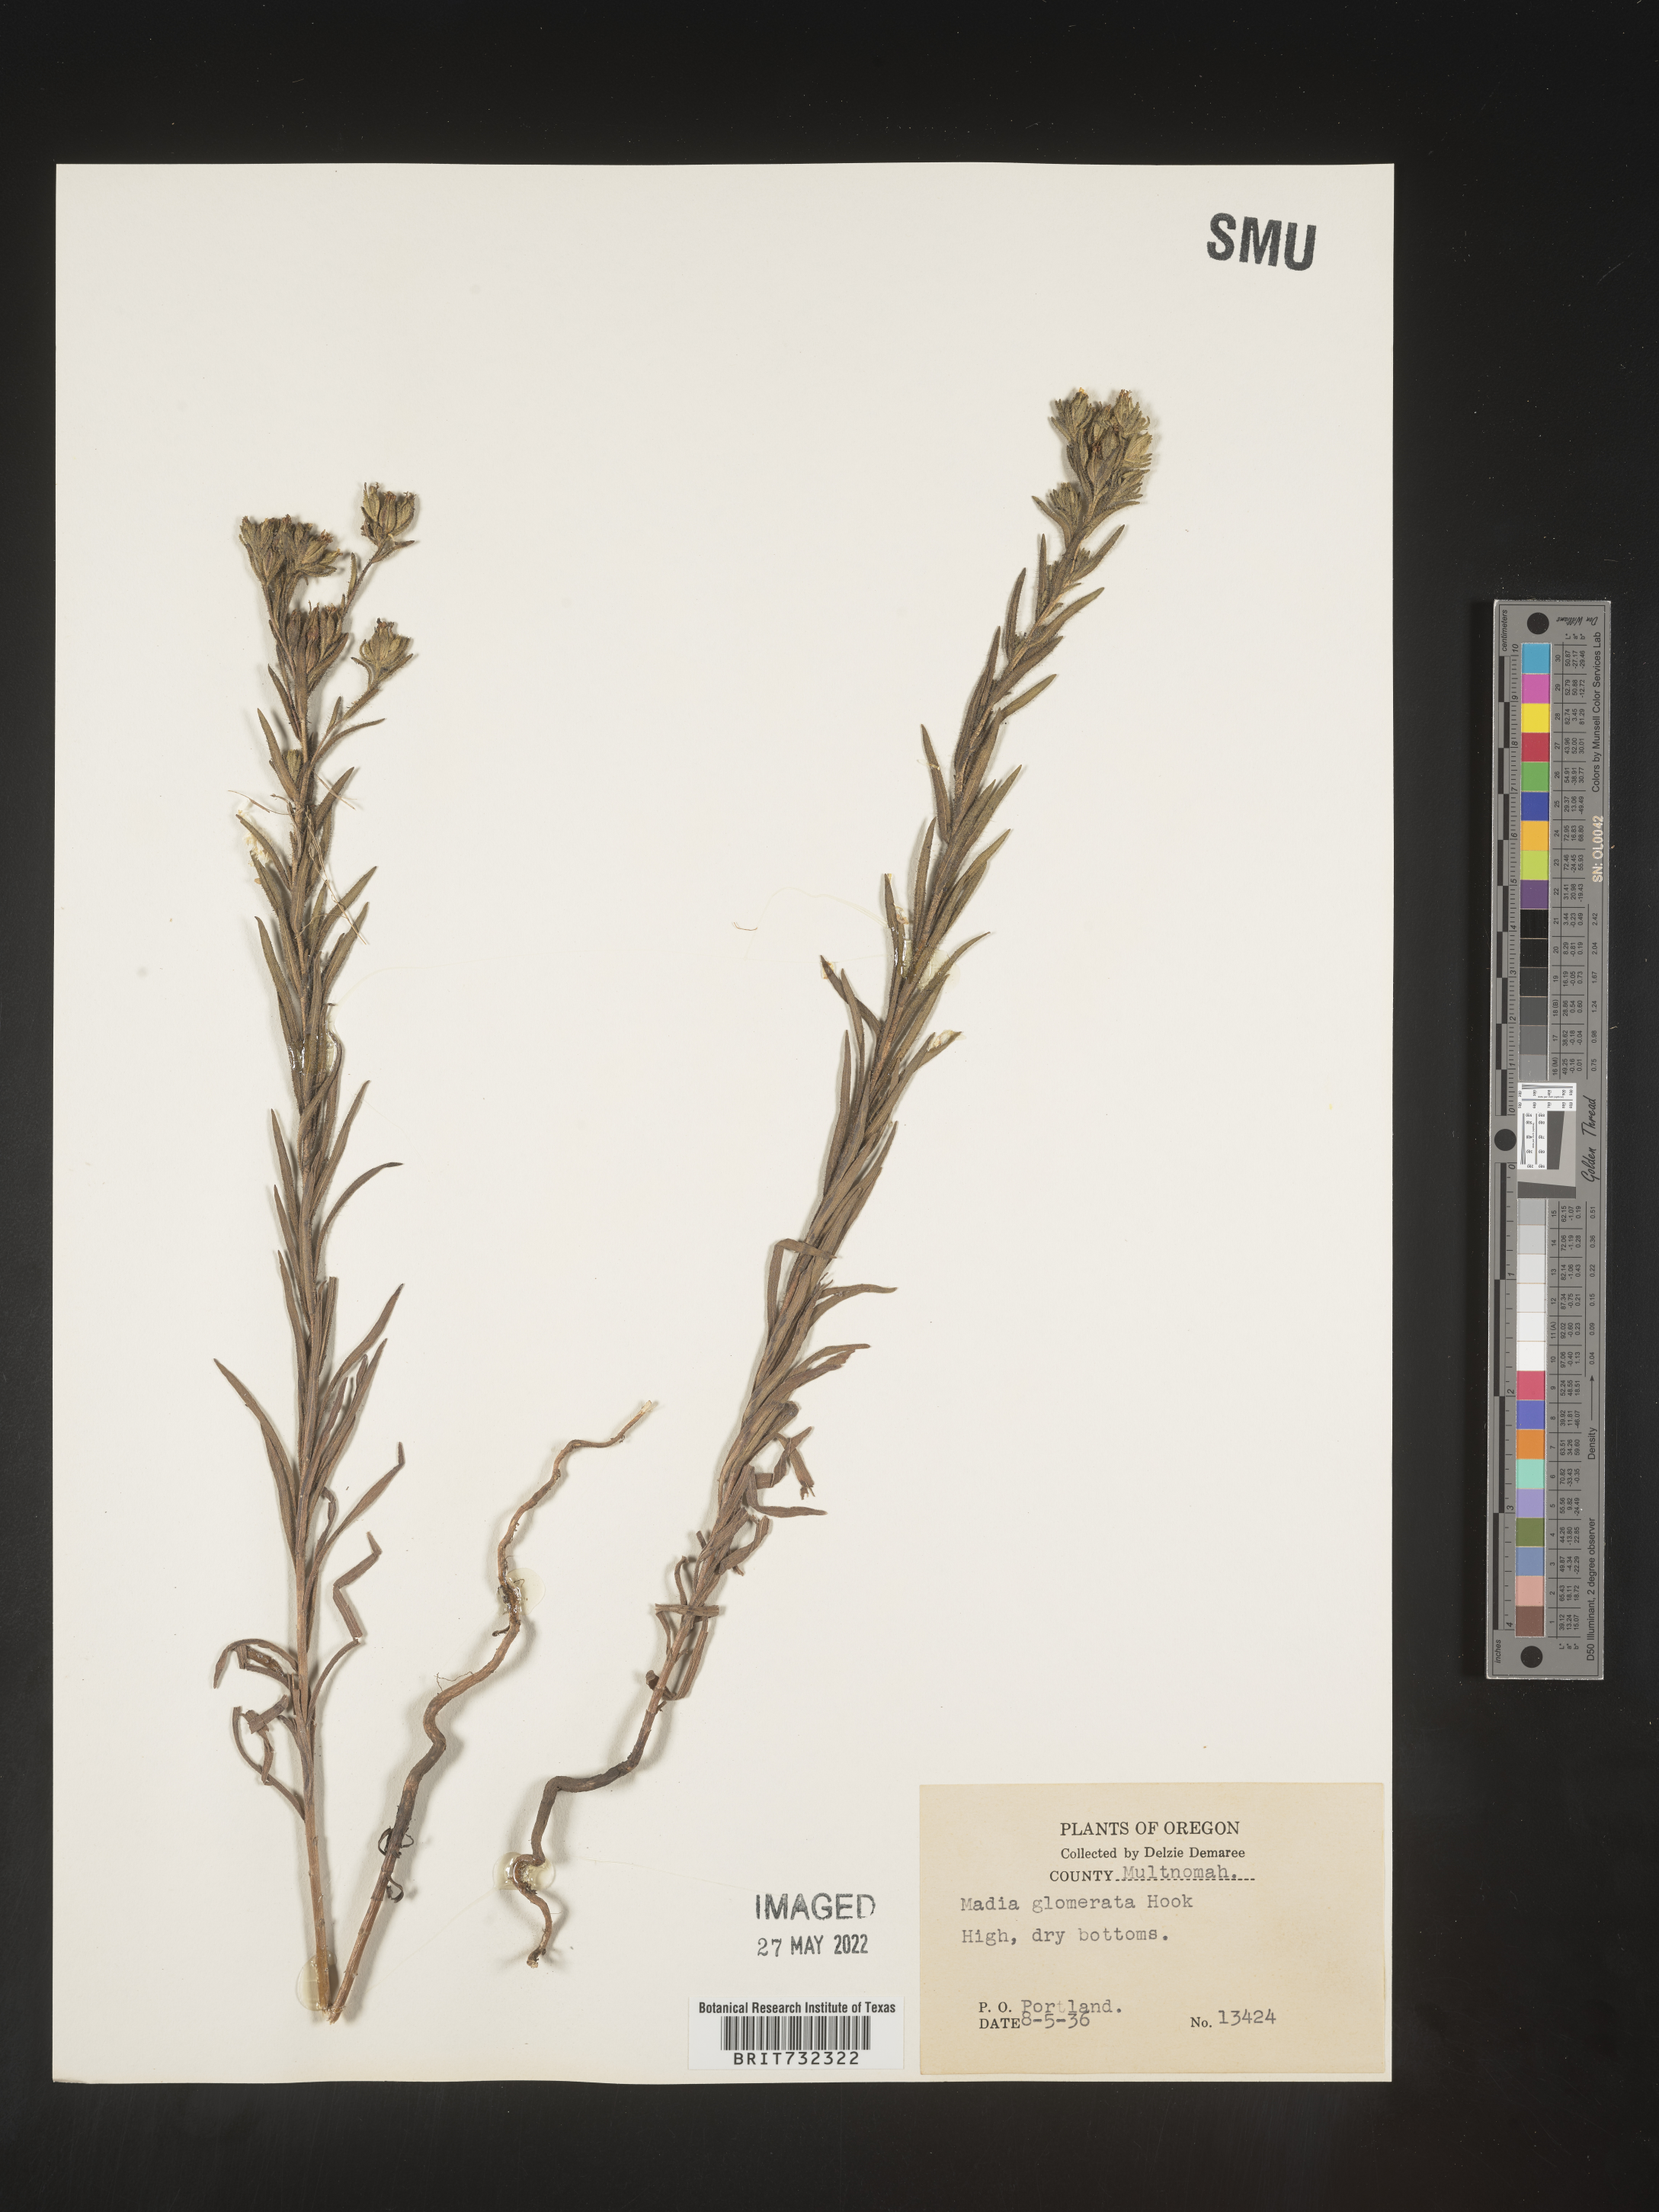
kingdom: Plantae
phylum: Tracheophyta
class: Magnoliopsida
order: Asterales
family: Asteraceae
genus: Madia
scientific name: Madia glomerata
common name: Mountain tarweed
